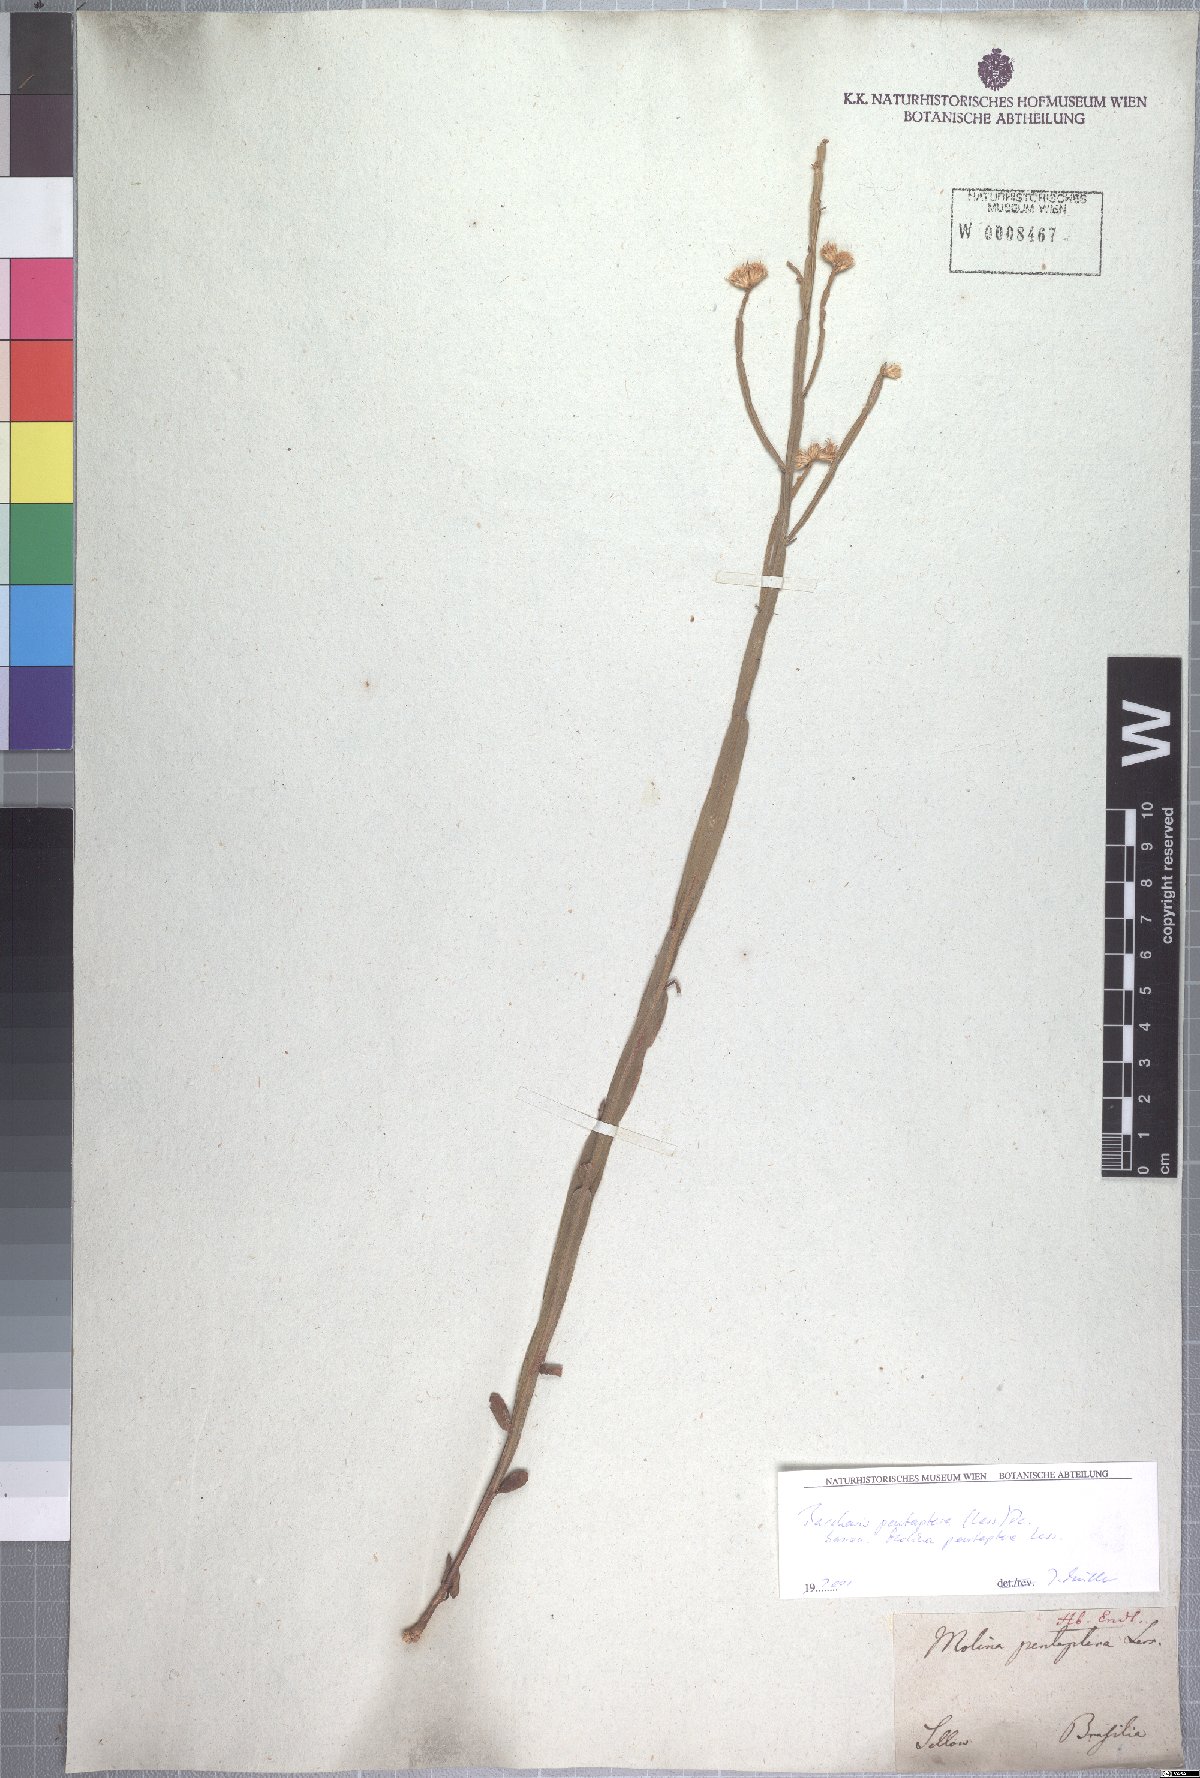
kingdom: Plantae
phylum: Tracheophyta
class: Magnoliopsida
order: Asterales
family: Asteraceae
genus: Baccharis
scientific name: Baccharis pentaptera
